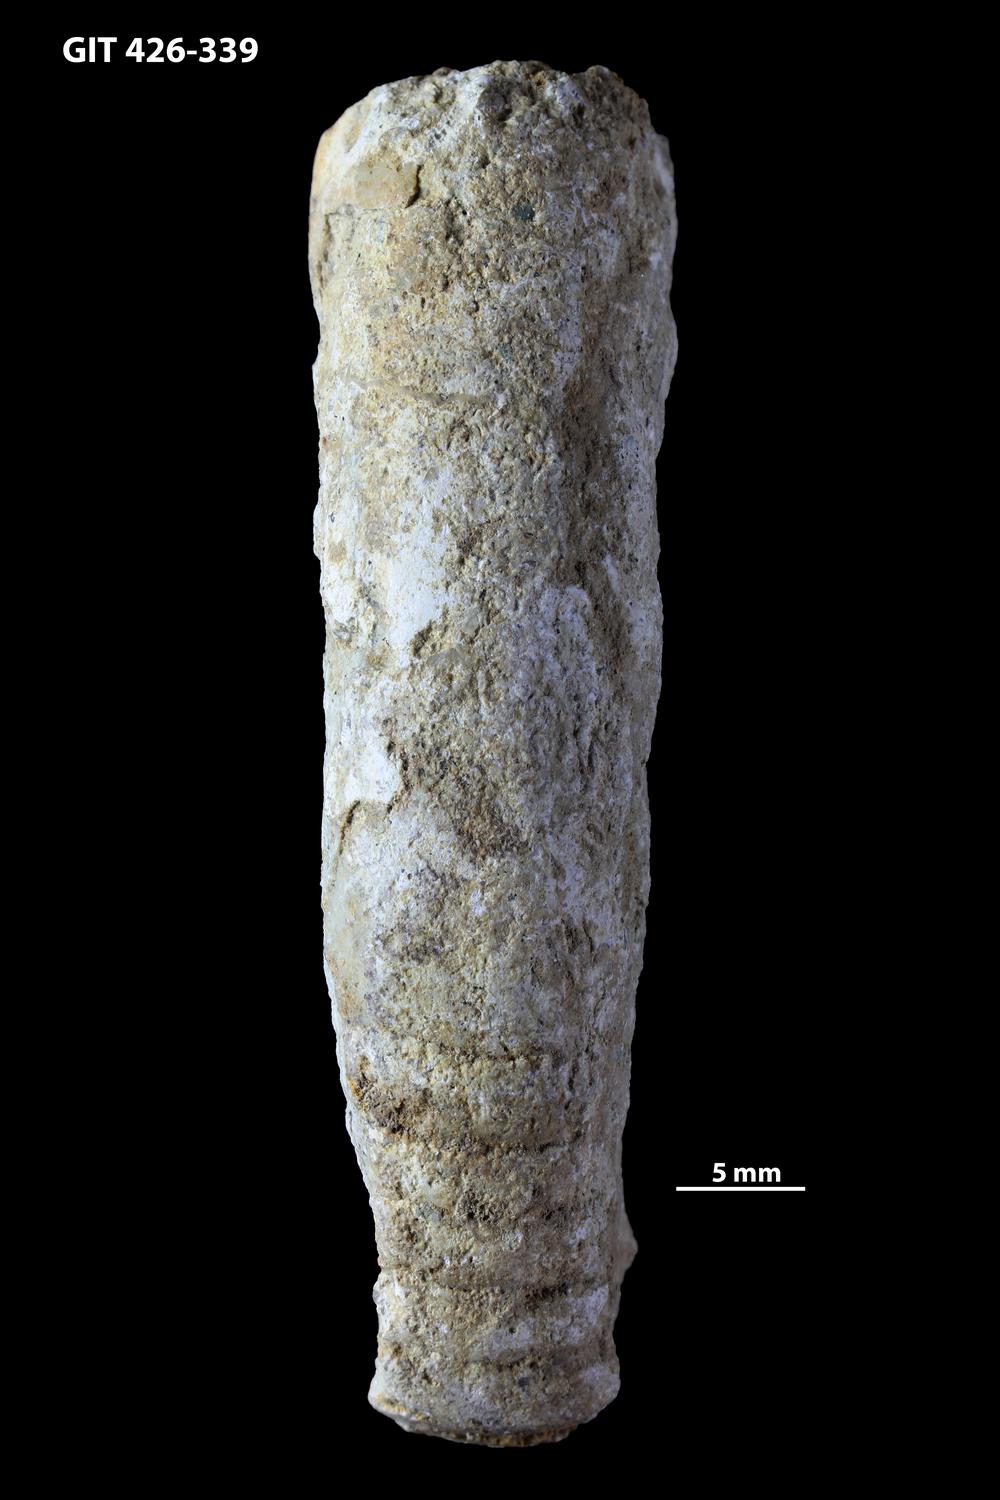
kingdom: Animalia
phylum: Mollusca
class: Cephalopoda
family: Estonioceratidae
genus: Tragoceras
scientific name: Tragoceras
